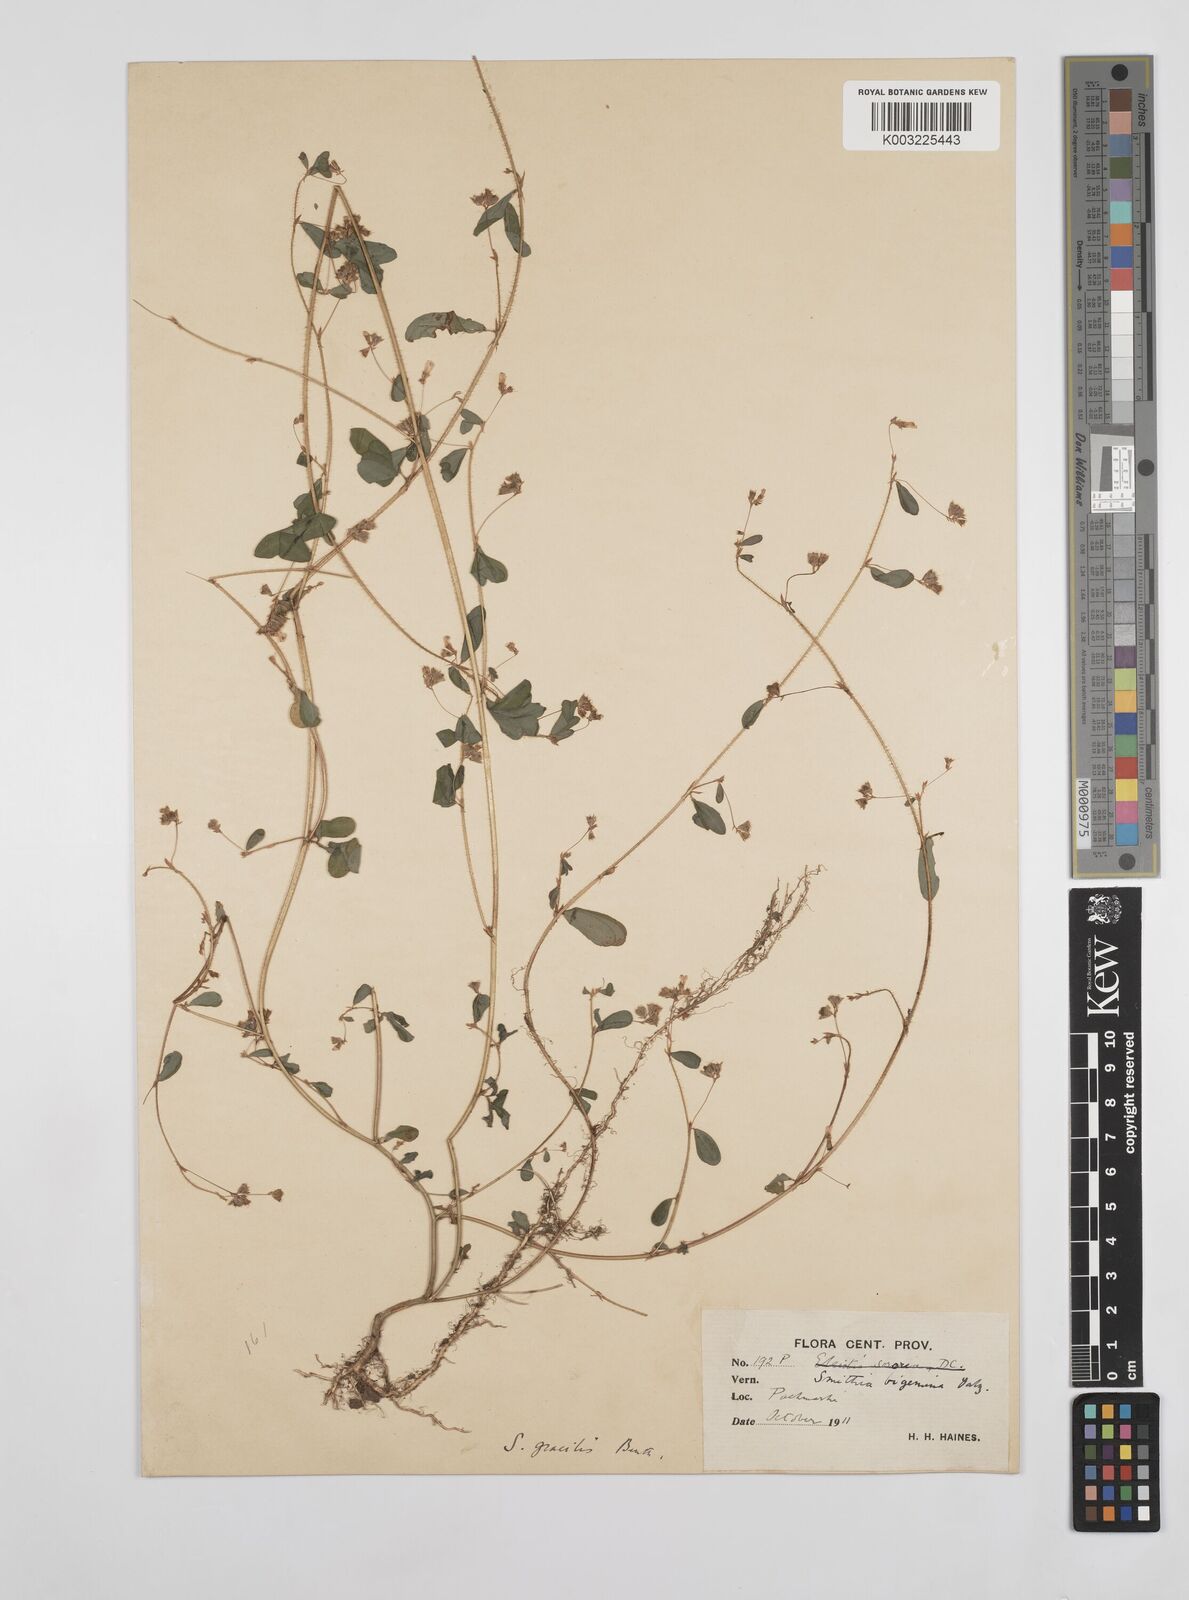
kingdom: Plantae
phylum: Tracheophyta
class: Magnoliopsida
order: Fabales
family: Fabaceae
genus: Smithia
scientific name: Smithia gracilis
